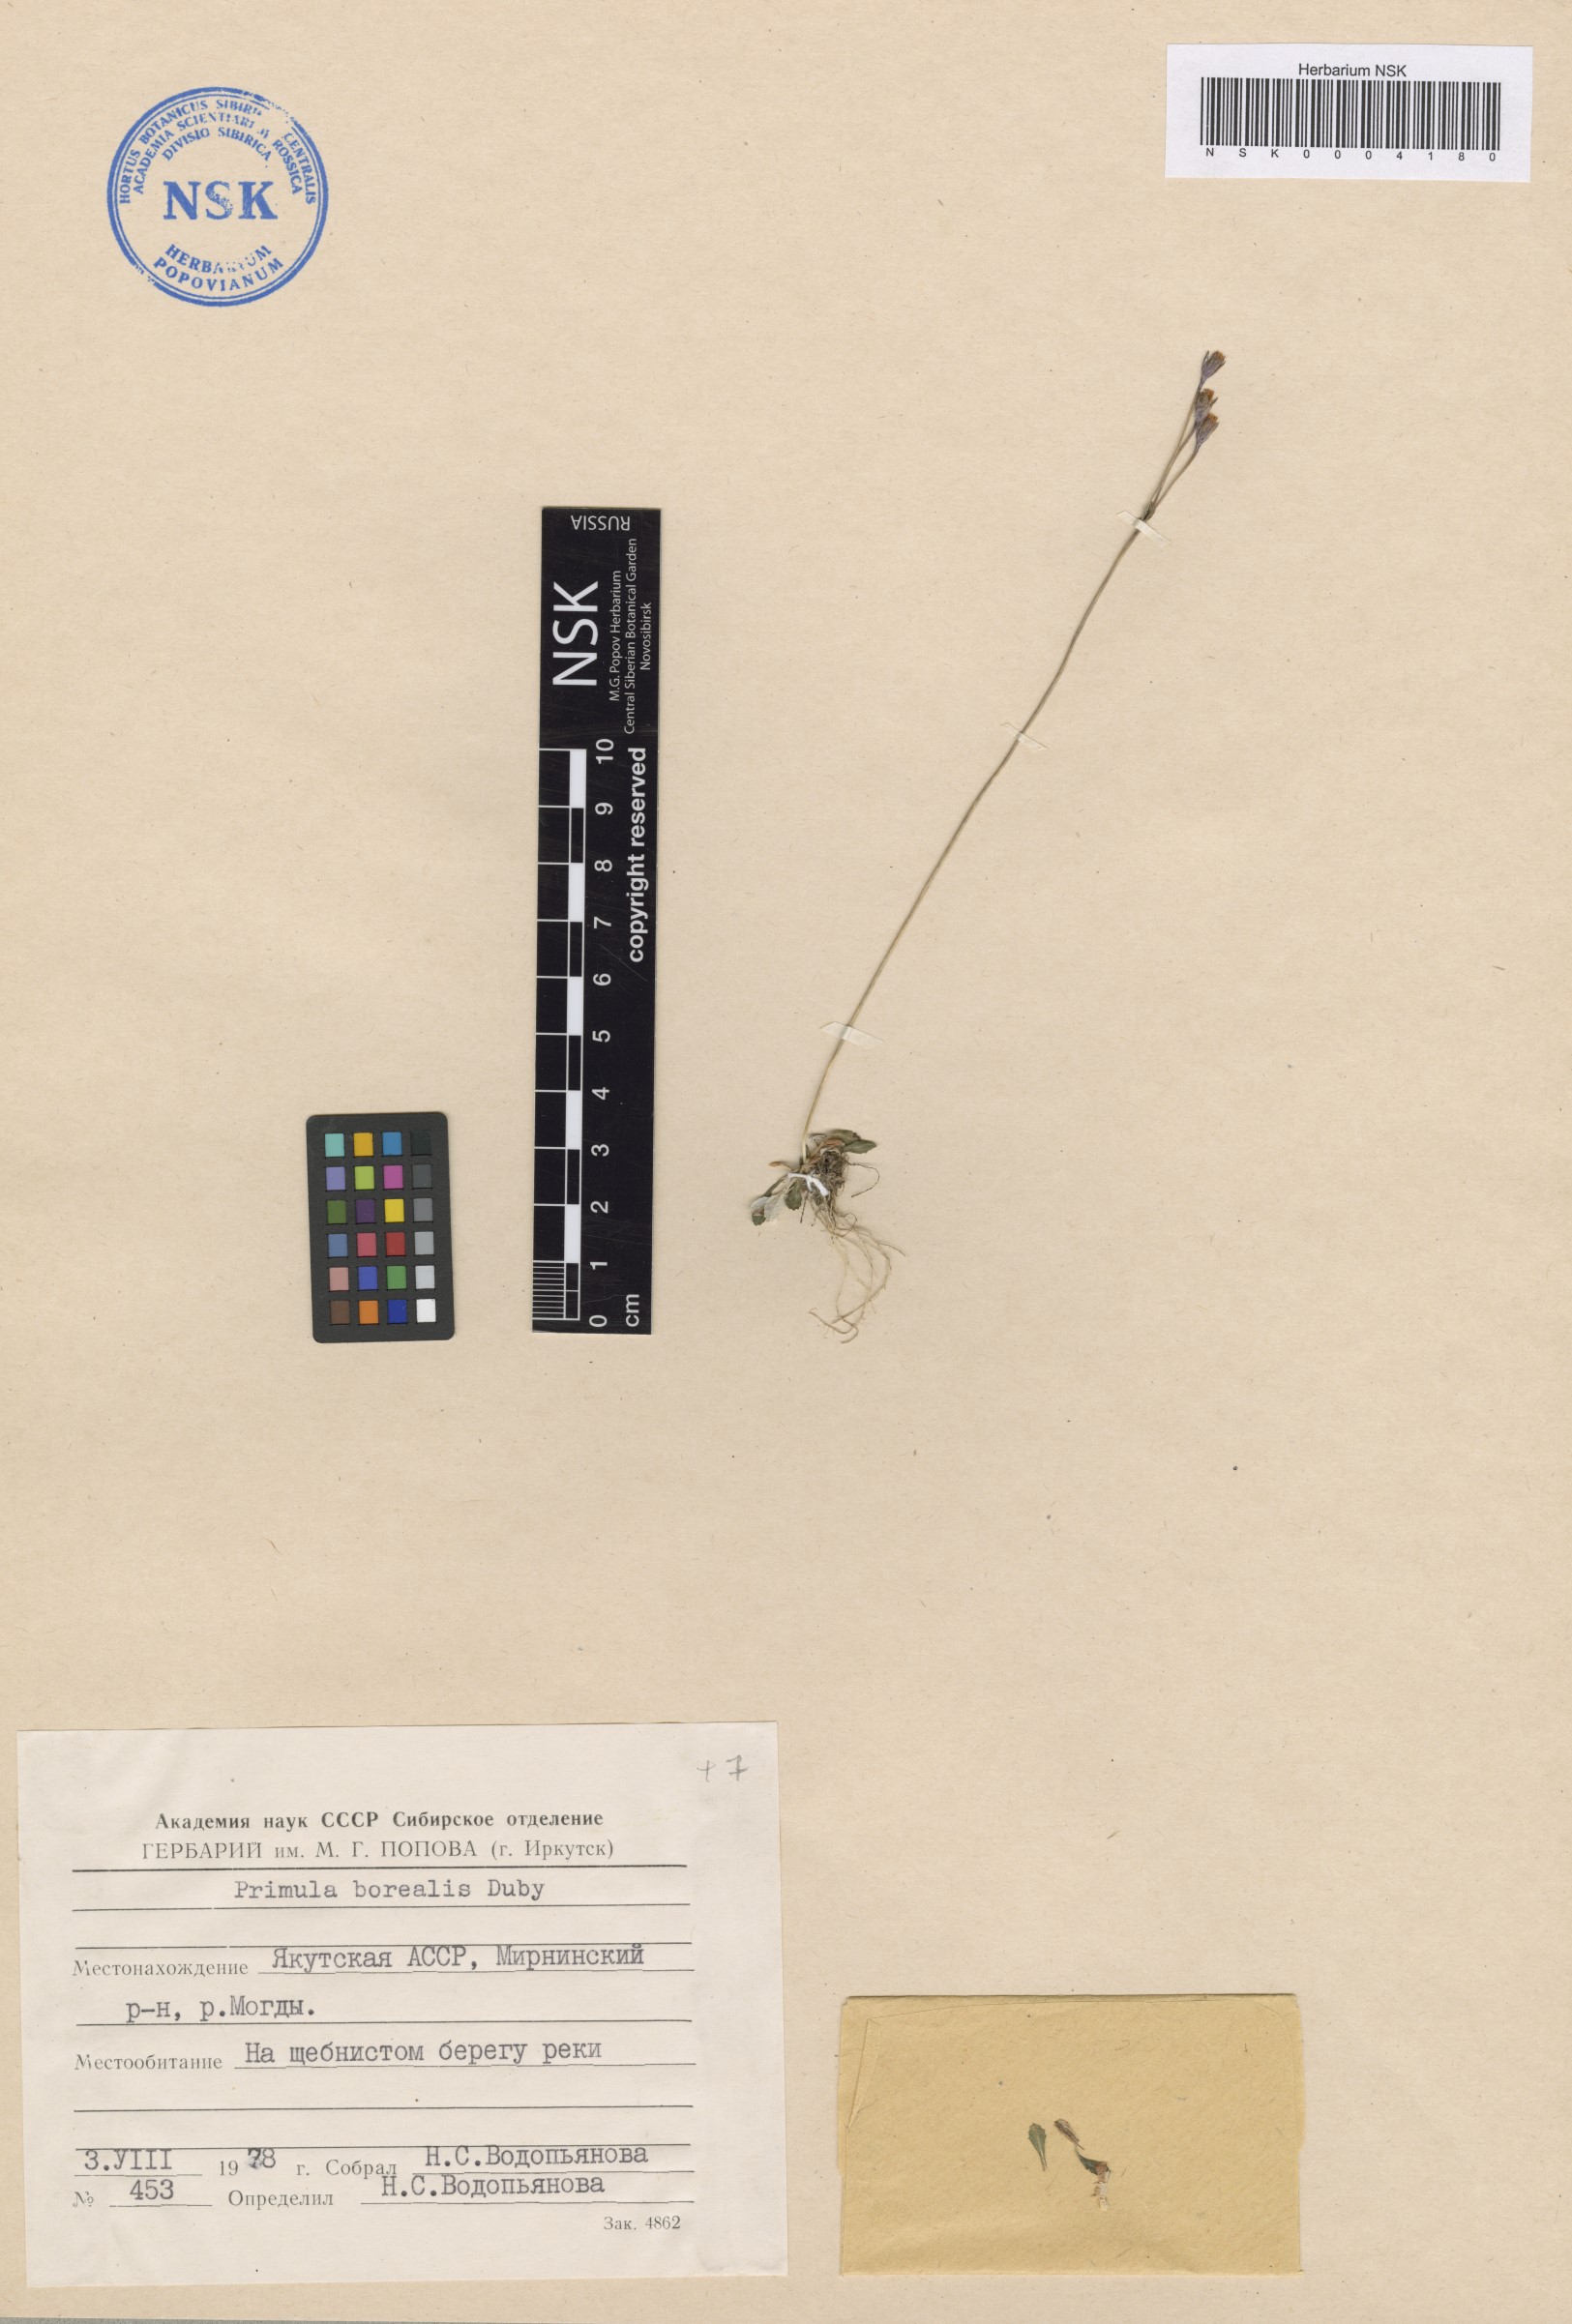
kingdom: Plantae
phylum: Tracheophyta
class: Magnoliopsida
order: Ericales
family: Primulaceae
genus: Primula
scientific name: Primula borealis
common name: Northern primrose
